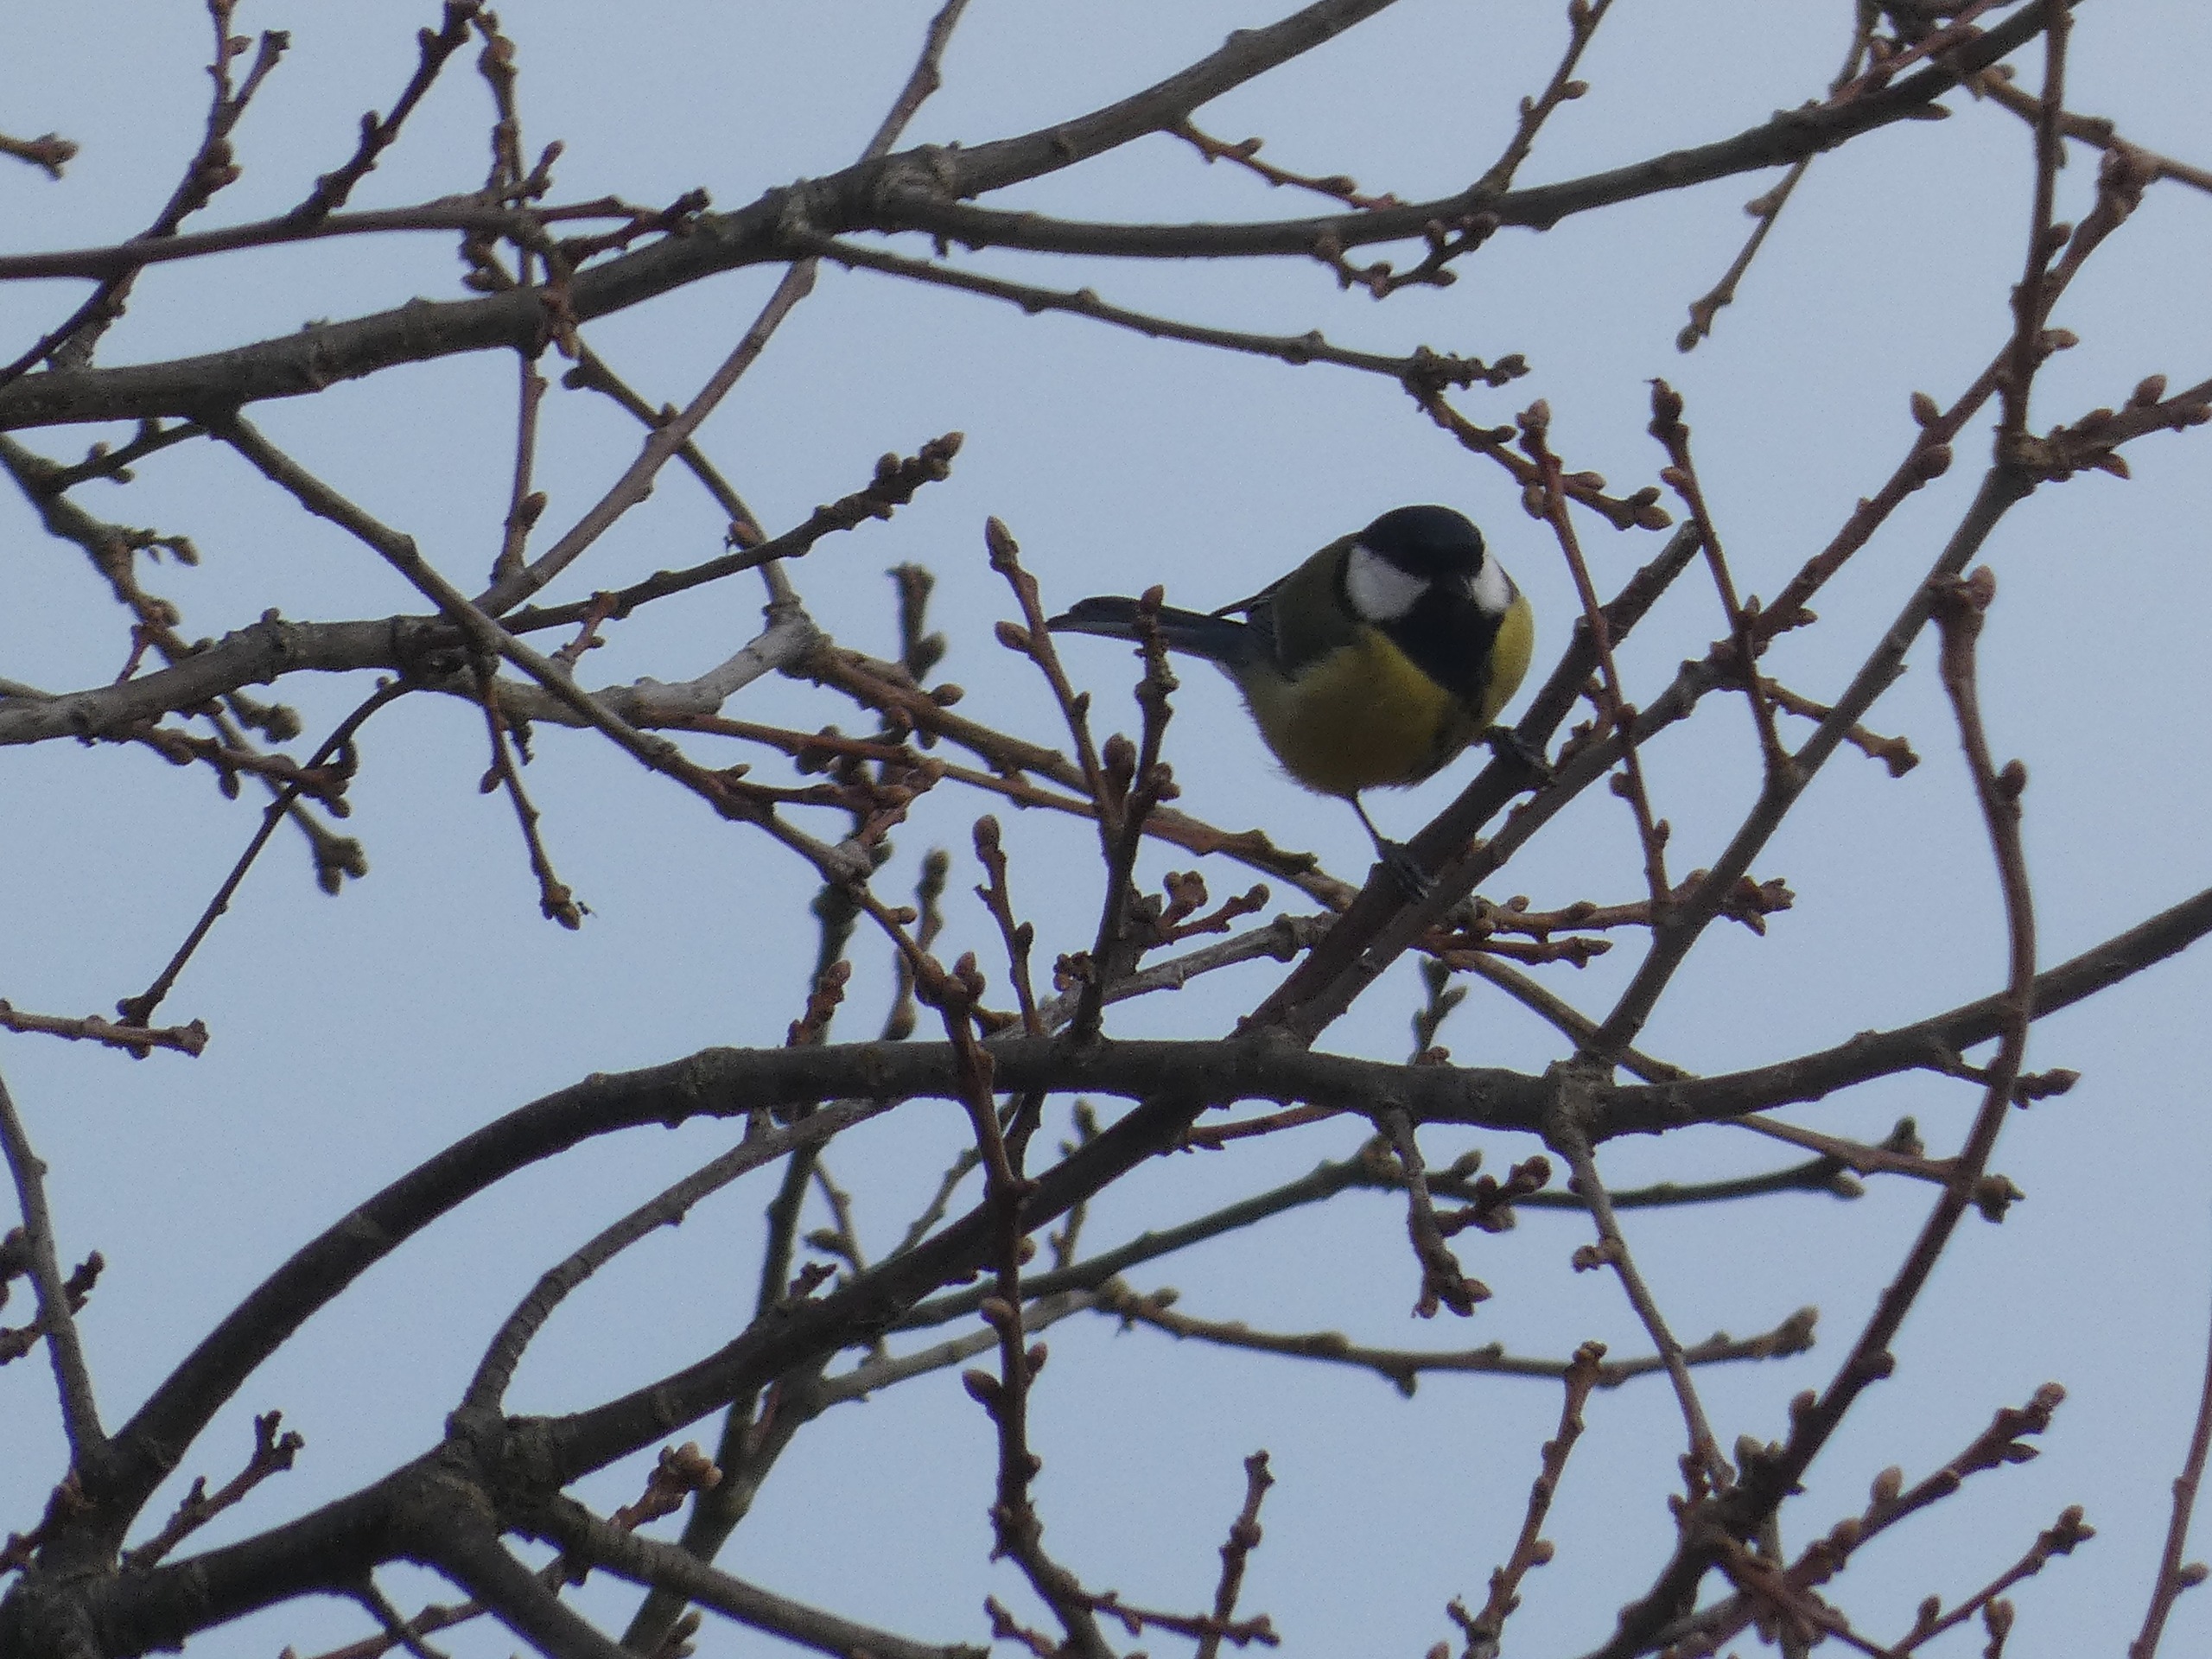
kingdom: Animalia
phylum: Chordata
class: Aves
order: Passeriformes
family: Paridae
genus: Parus
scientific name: Parus major
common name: Musvit
